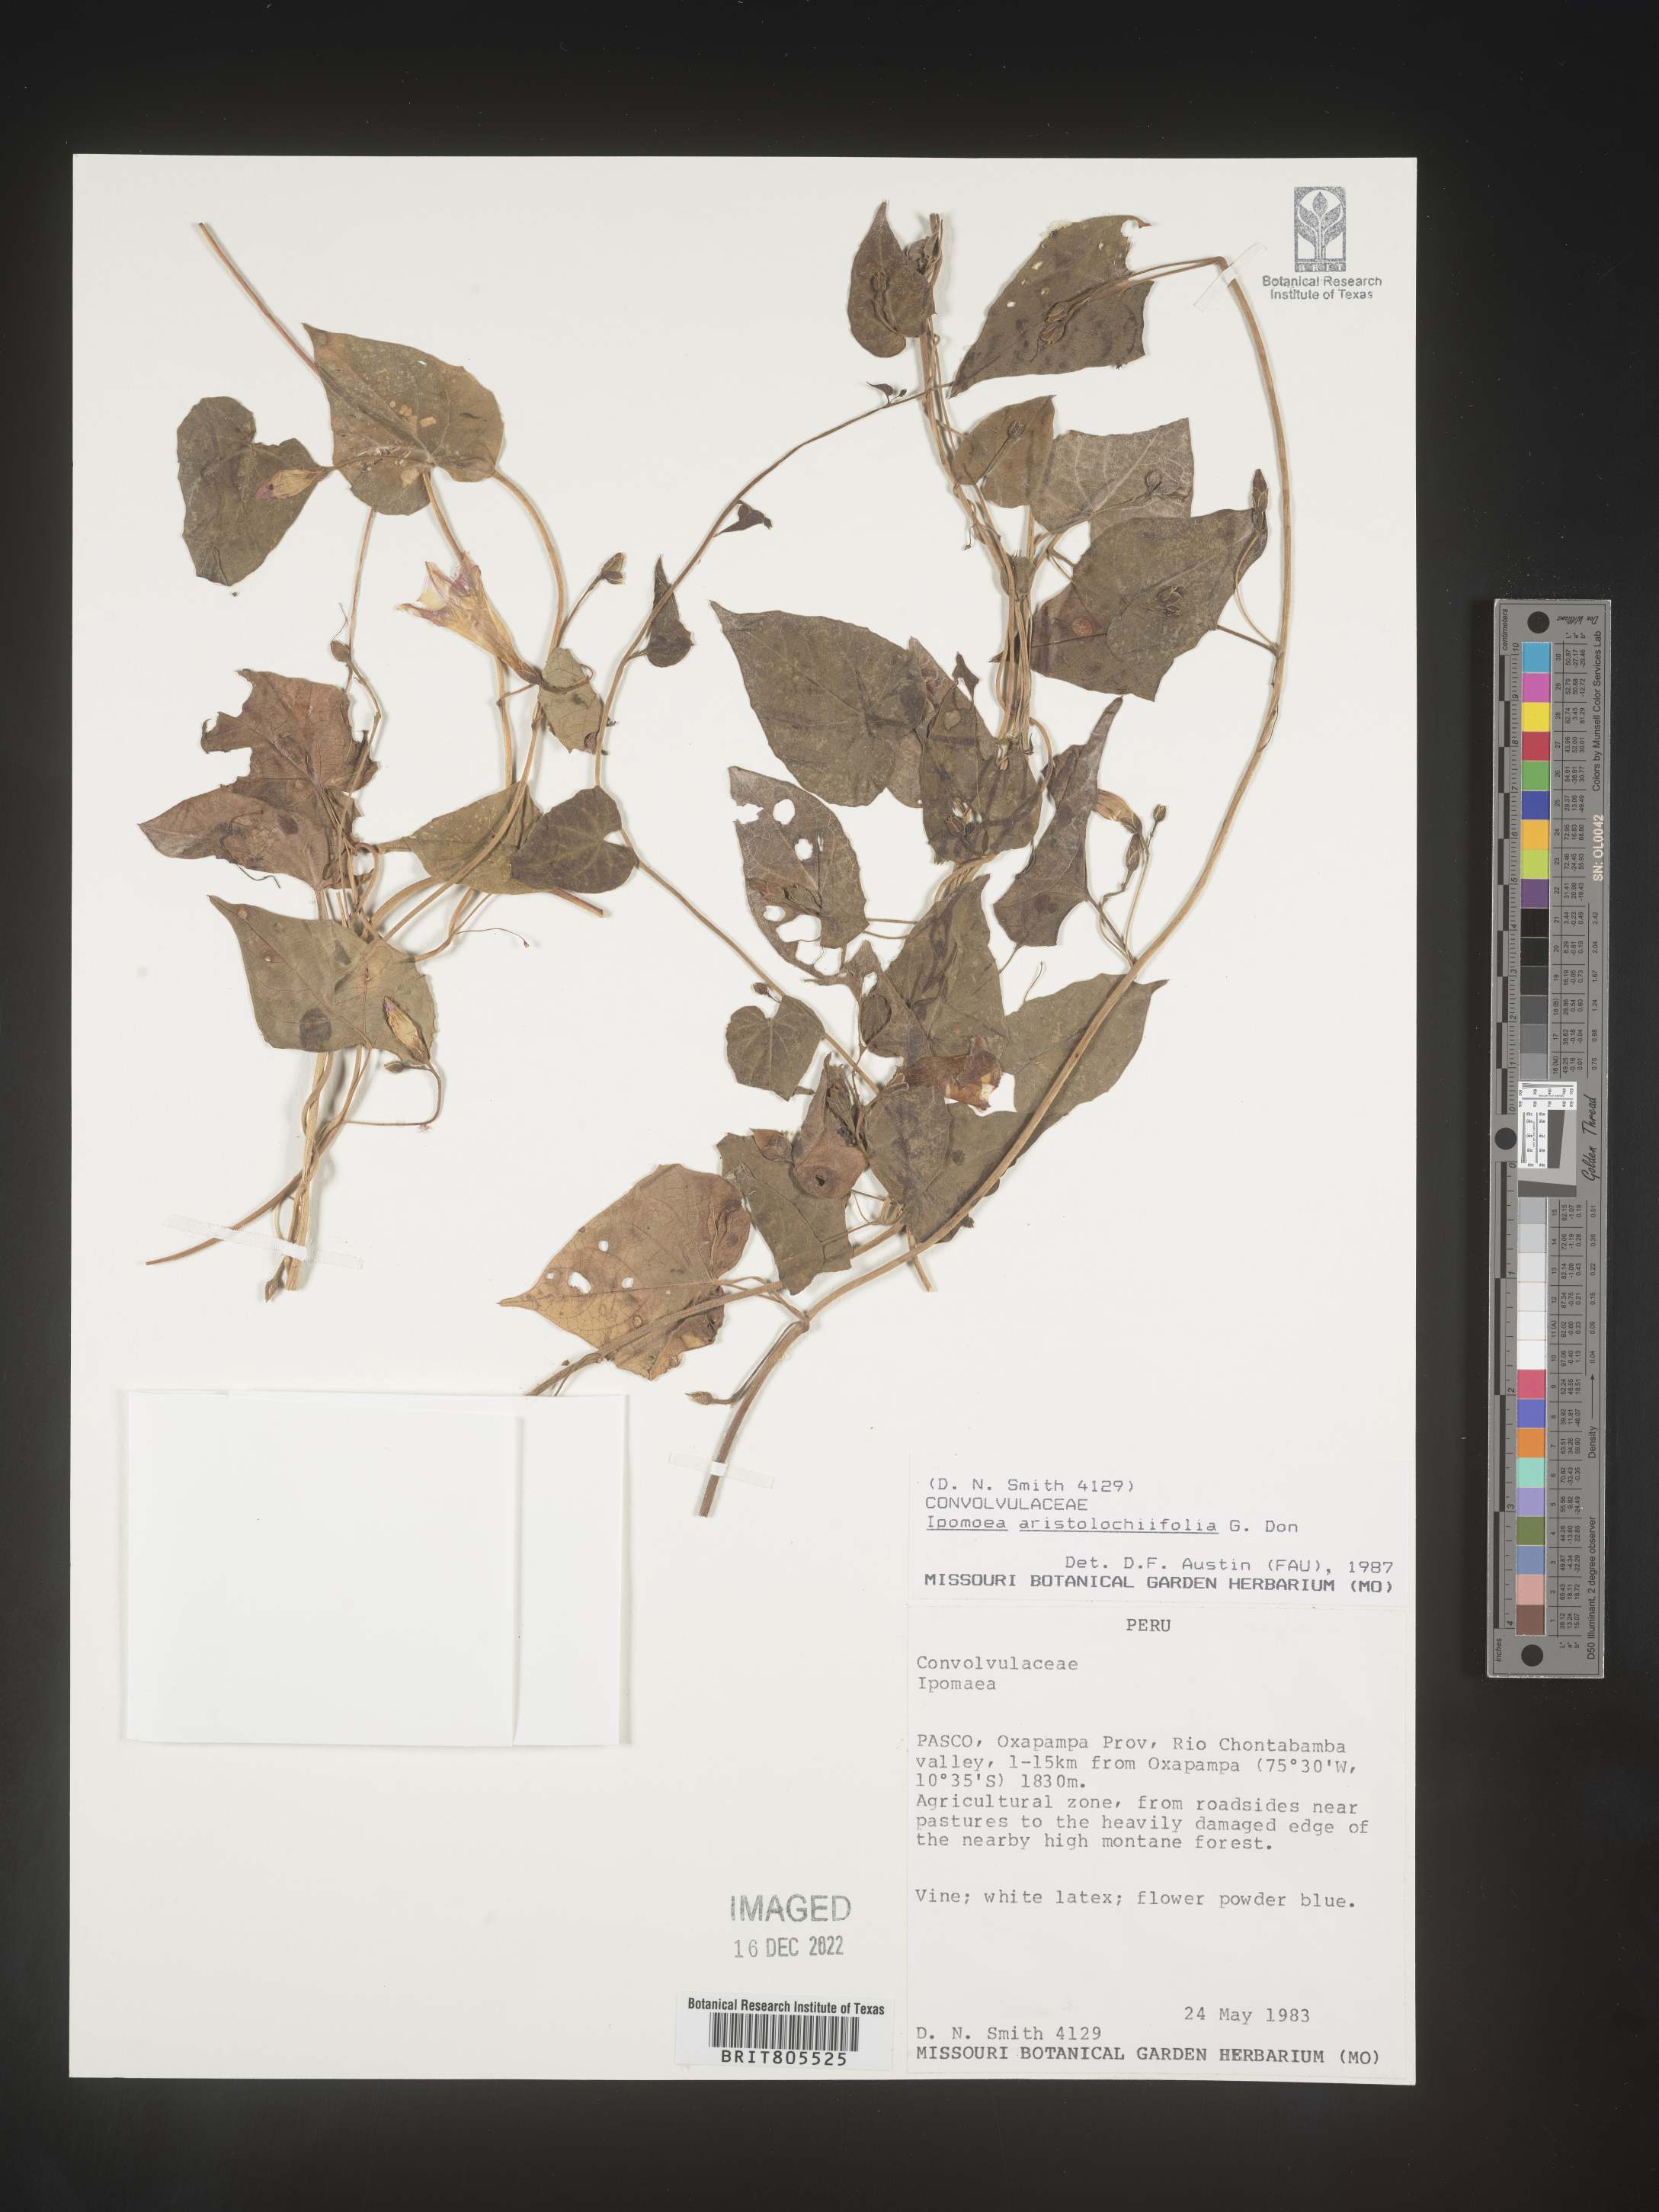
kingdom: Plantae
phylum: Tracheophyta
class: Magnoliopsida
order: Solanales
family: Convolvulaceae
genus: Ipomoea
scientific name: Ipomoea
